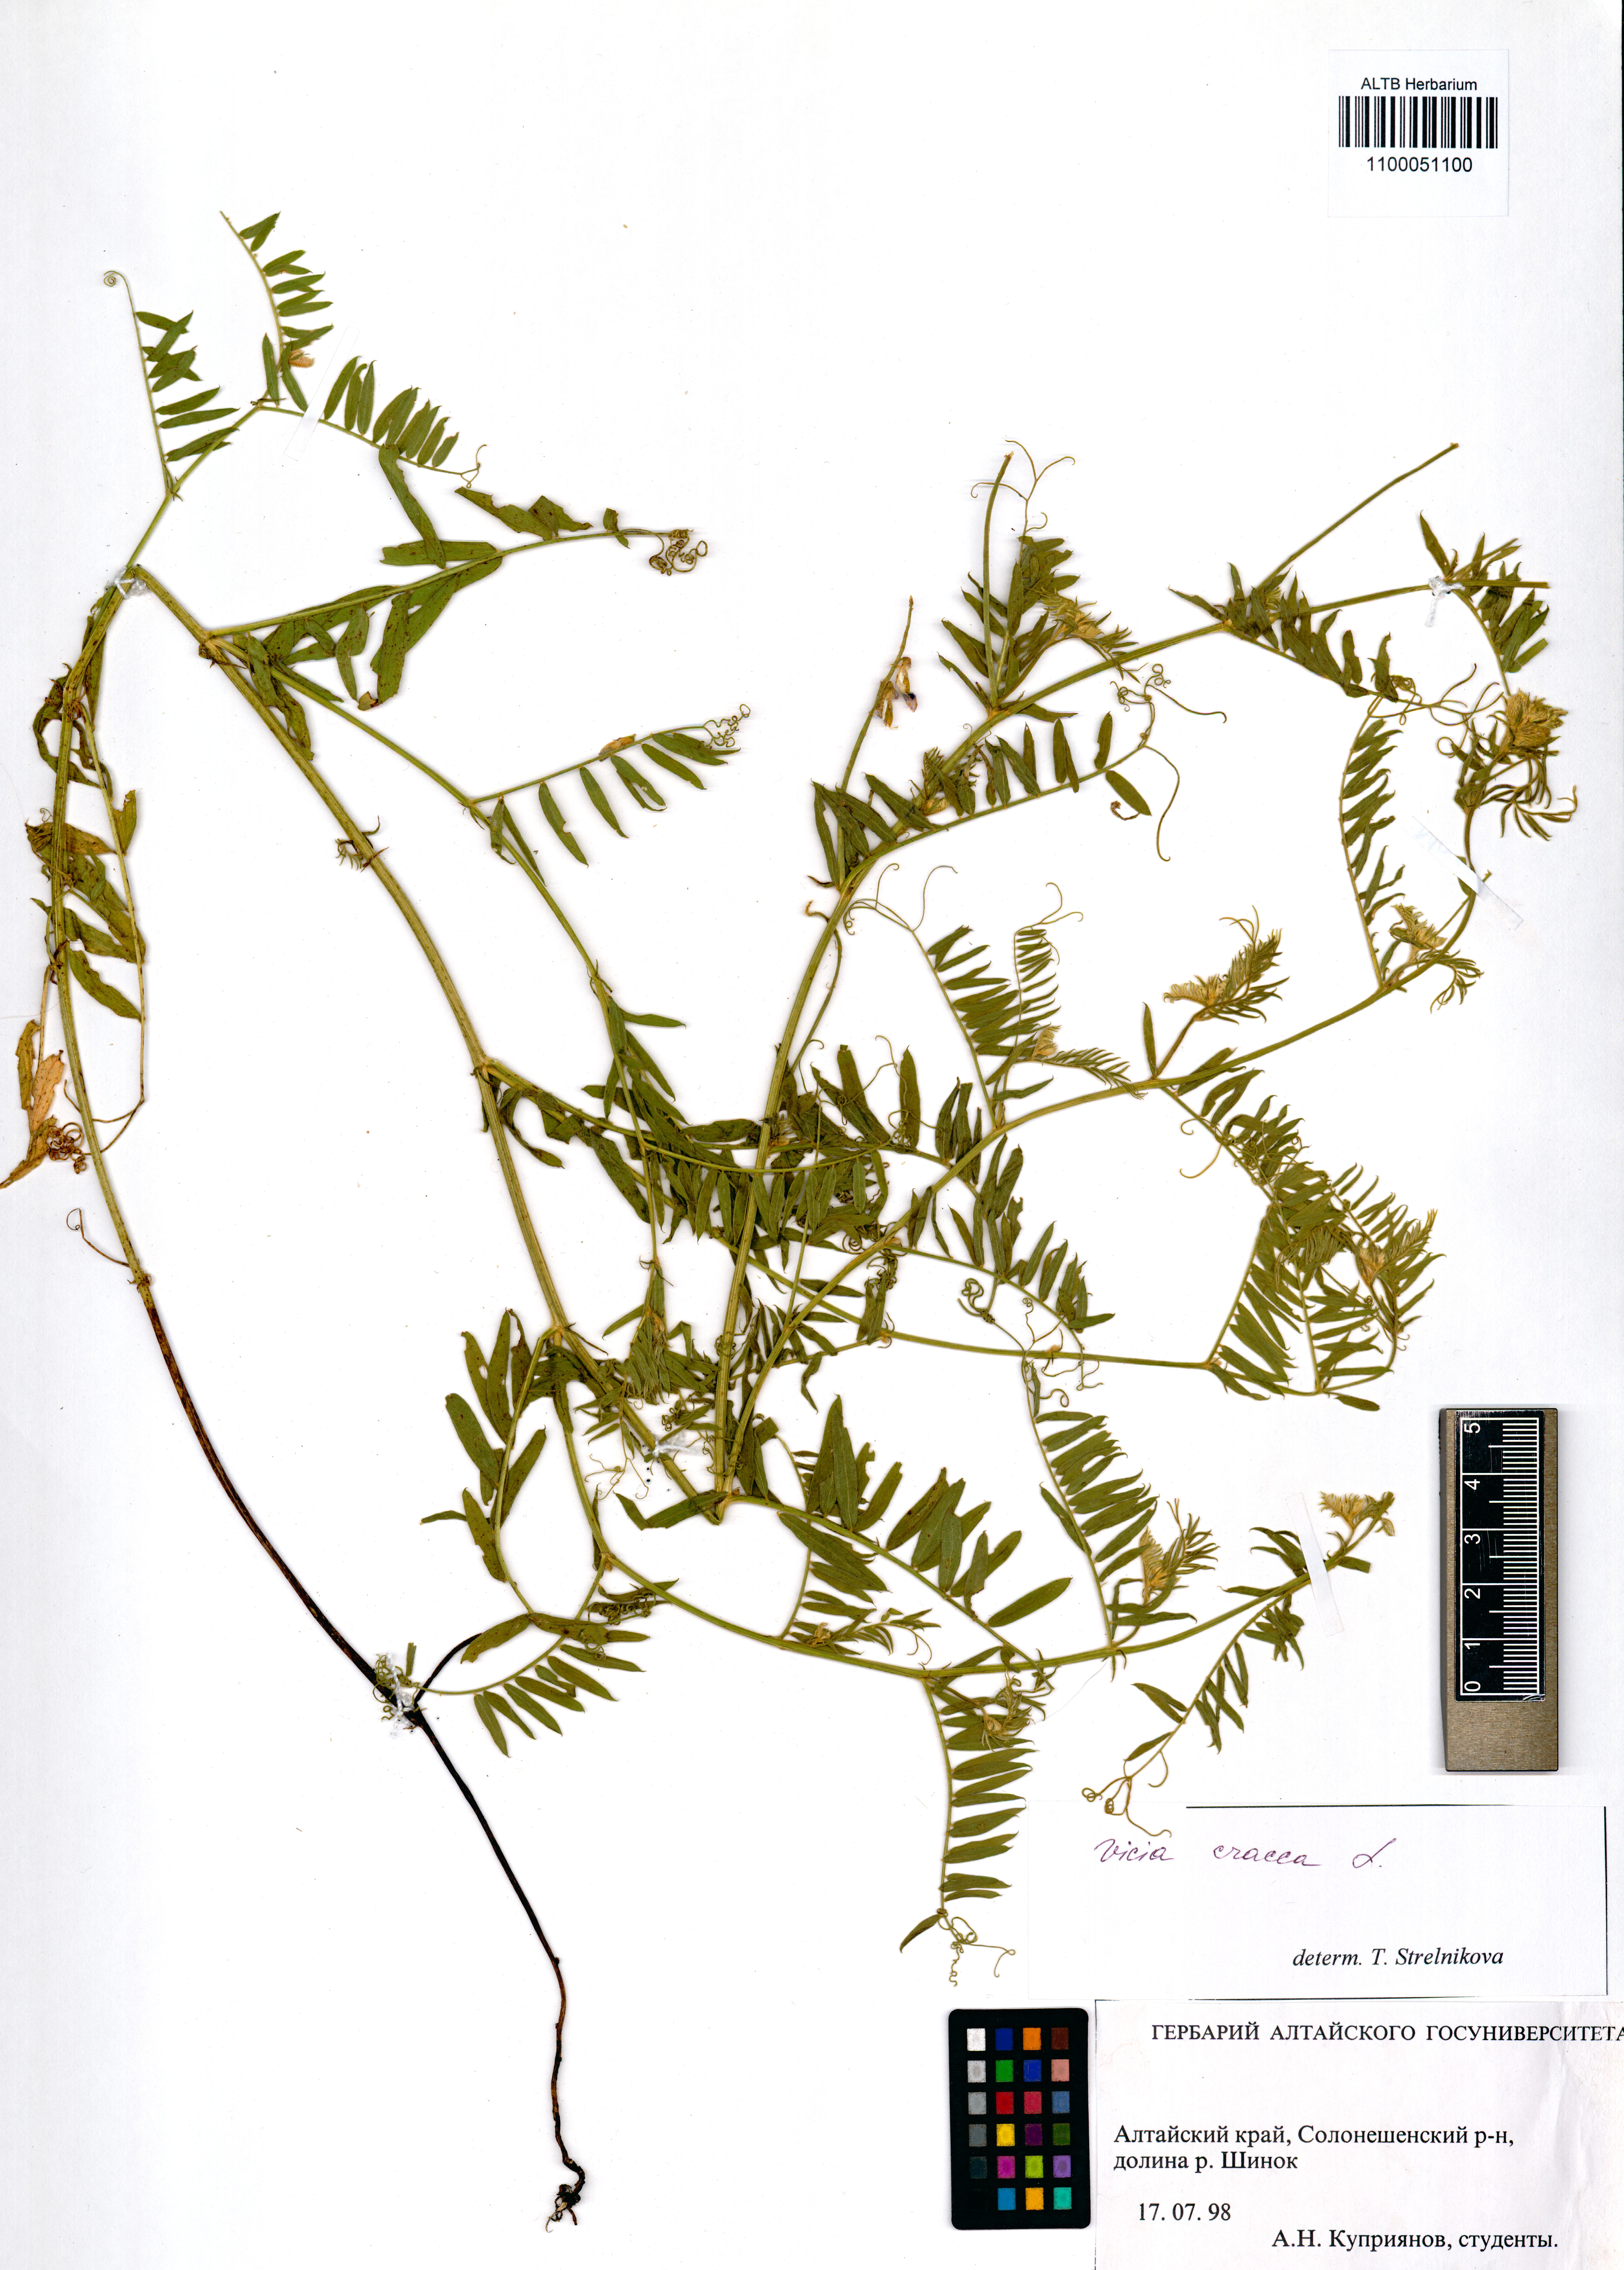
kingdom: Plantae
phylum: Tracheophyta
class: Magnoliopsida
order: Fabales
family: Fabaceae
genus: Vicia
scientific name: Vicia cracca
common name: Bird vetch
